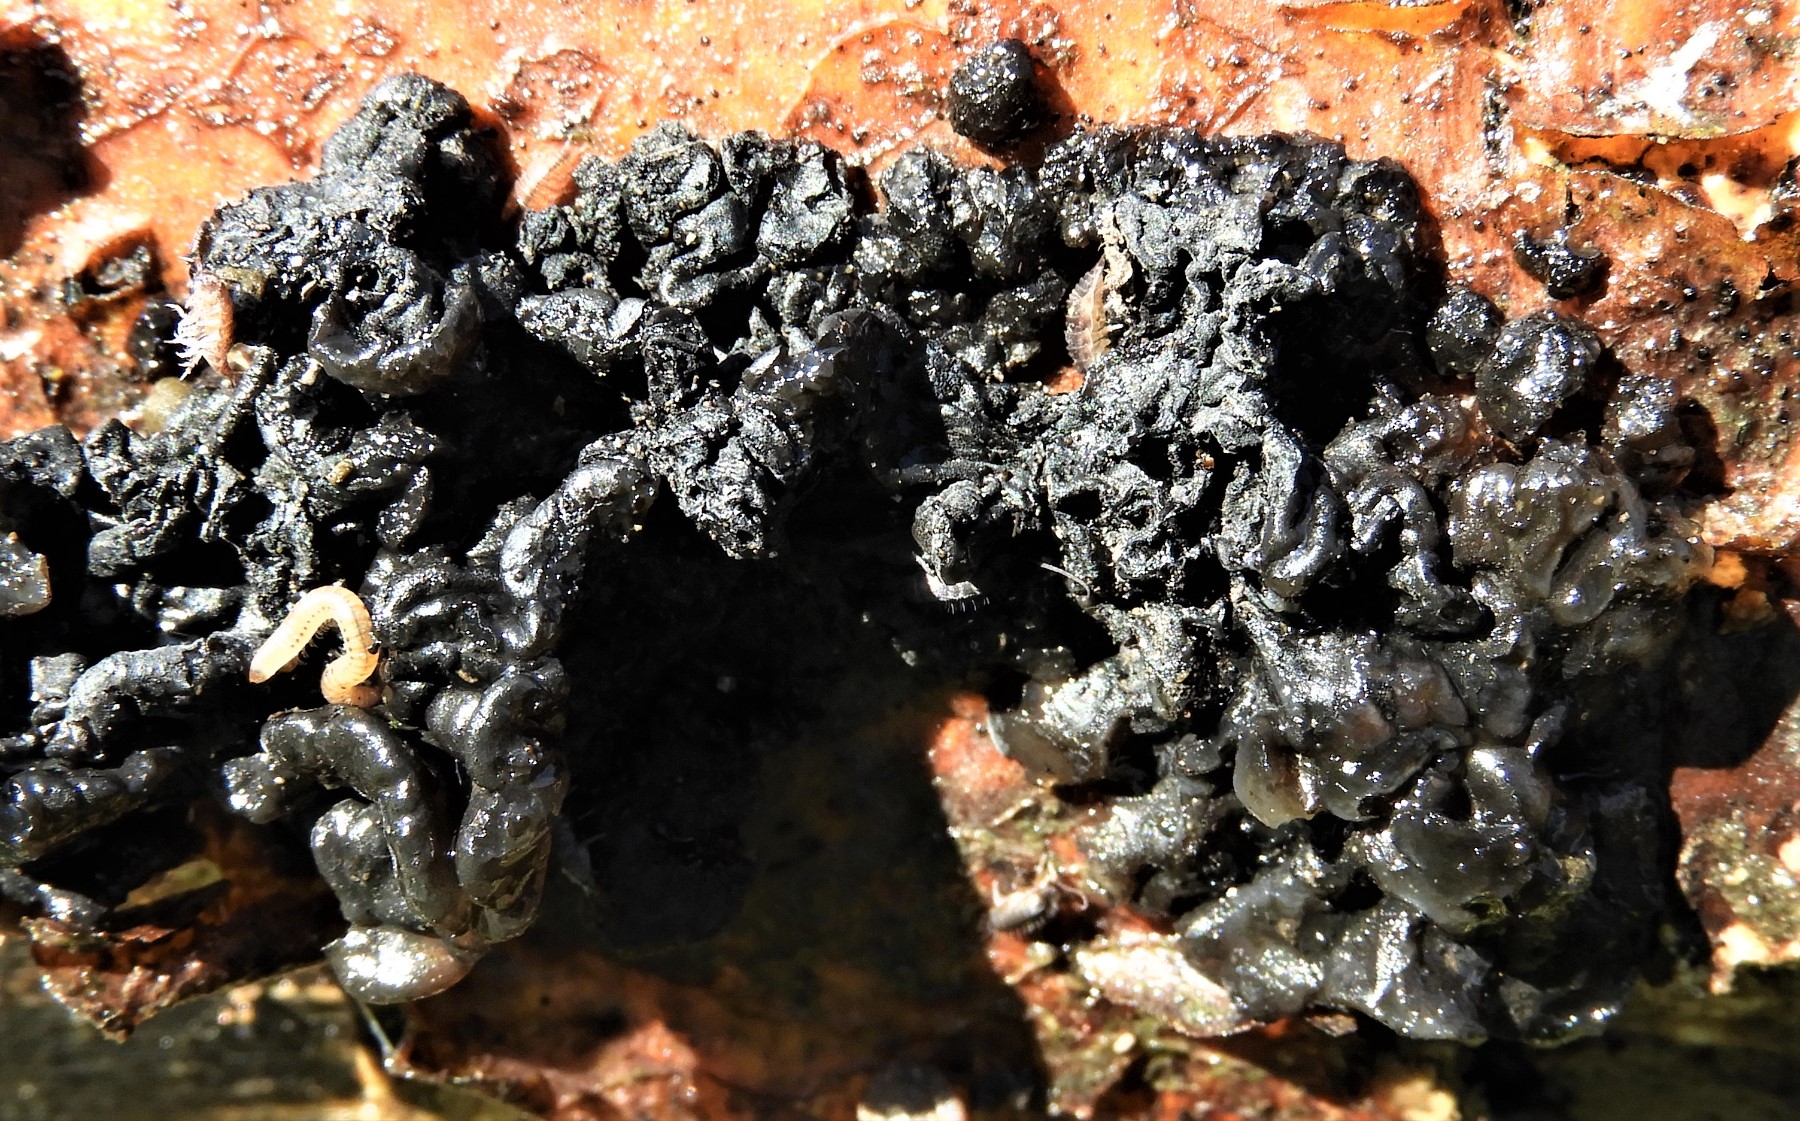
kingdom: Fungi
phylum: Basidiomycota
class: Agaricomycetes
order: Auriculariales
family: Auriculariaceae
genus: Exidia
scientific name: Exidia nigricans
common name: almindelig bævretop
